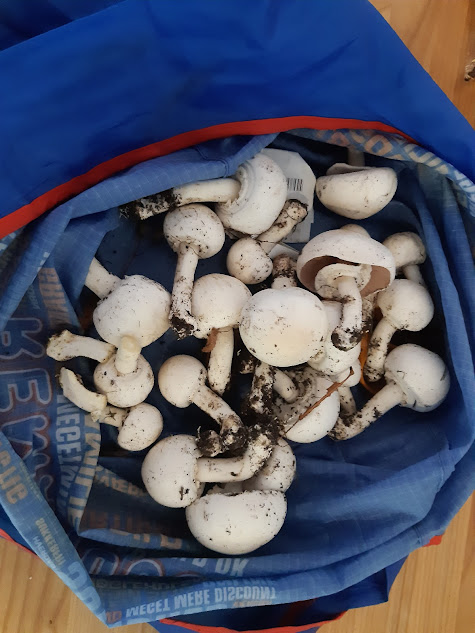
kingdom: Fungi
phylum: Basidiomycota
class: Agaricomycetes
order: Agaricales
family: Agaricaceae
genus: Agaricus
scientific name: Agaricus
